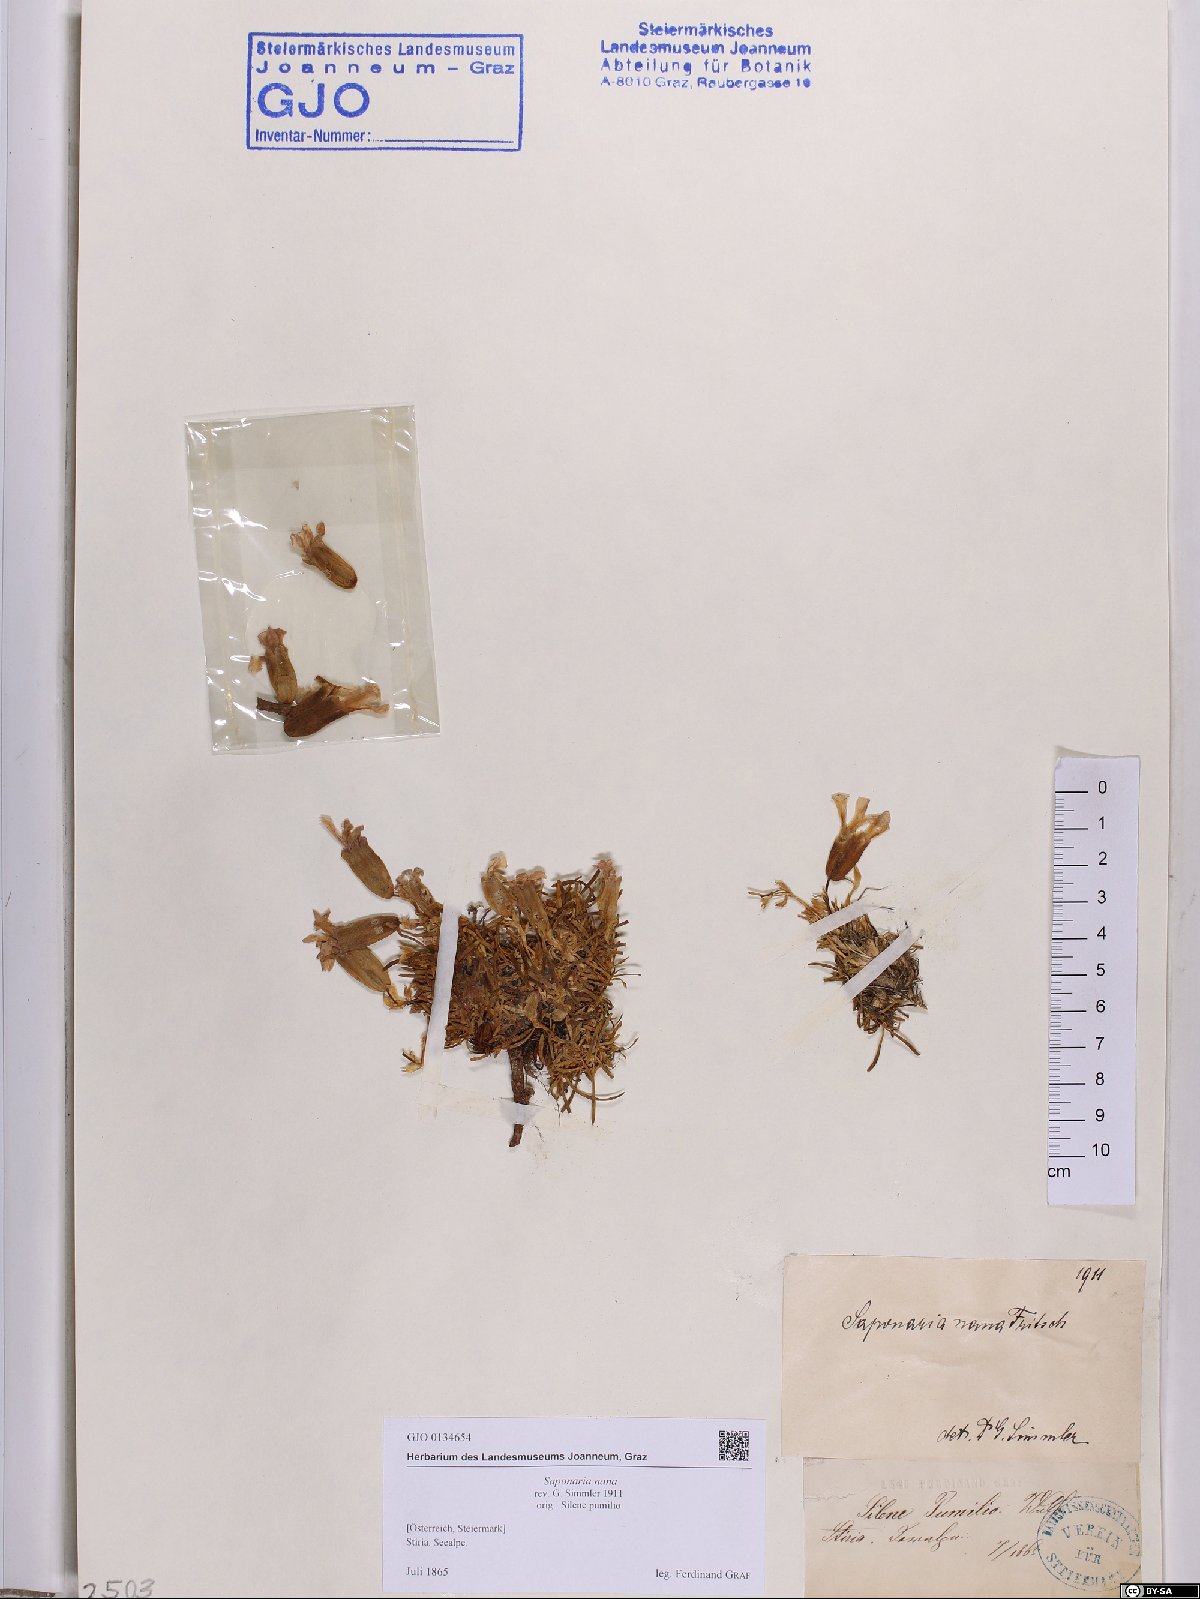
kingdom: Plantae
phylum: Tracheophyta
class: Magnoliopsida
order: Caryophyllales
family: Caryophyllaceae
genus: Saponaria
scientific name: Saponaria pumila
